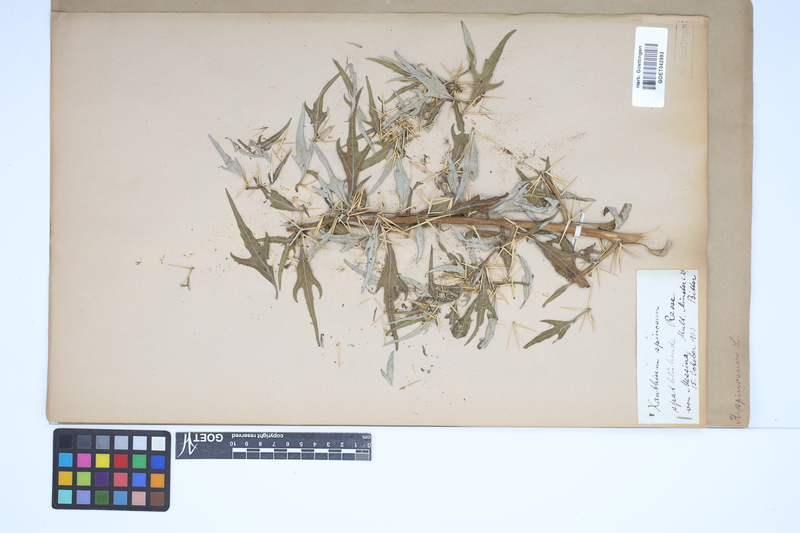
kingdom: Plantae
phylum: Tracheophyta
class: Magnoliopsida
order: Asterales
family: Asteraceae
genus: Xanthium
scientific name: Xanthium spinosum
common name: Spiny cocklebur
